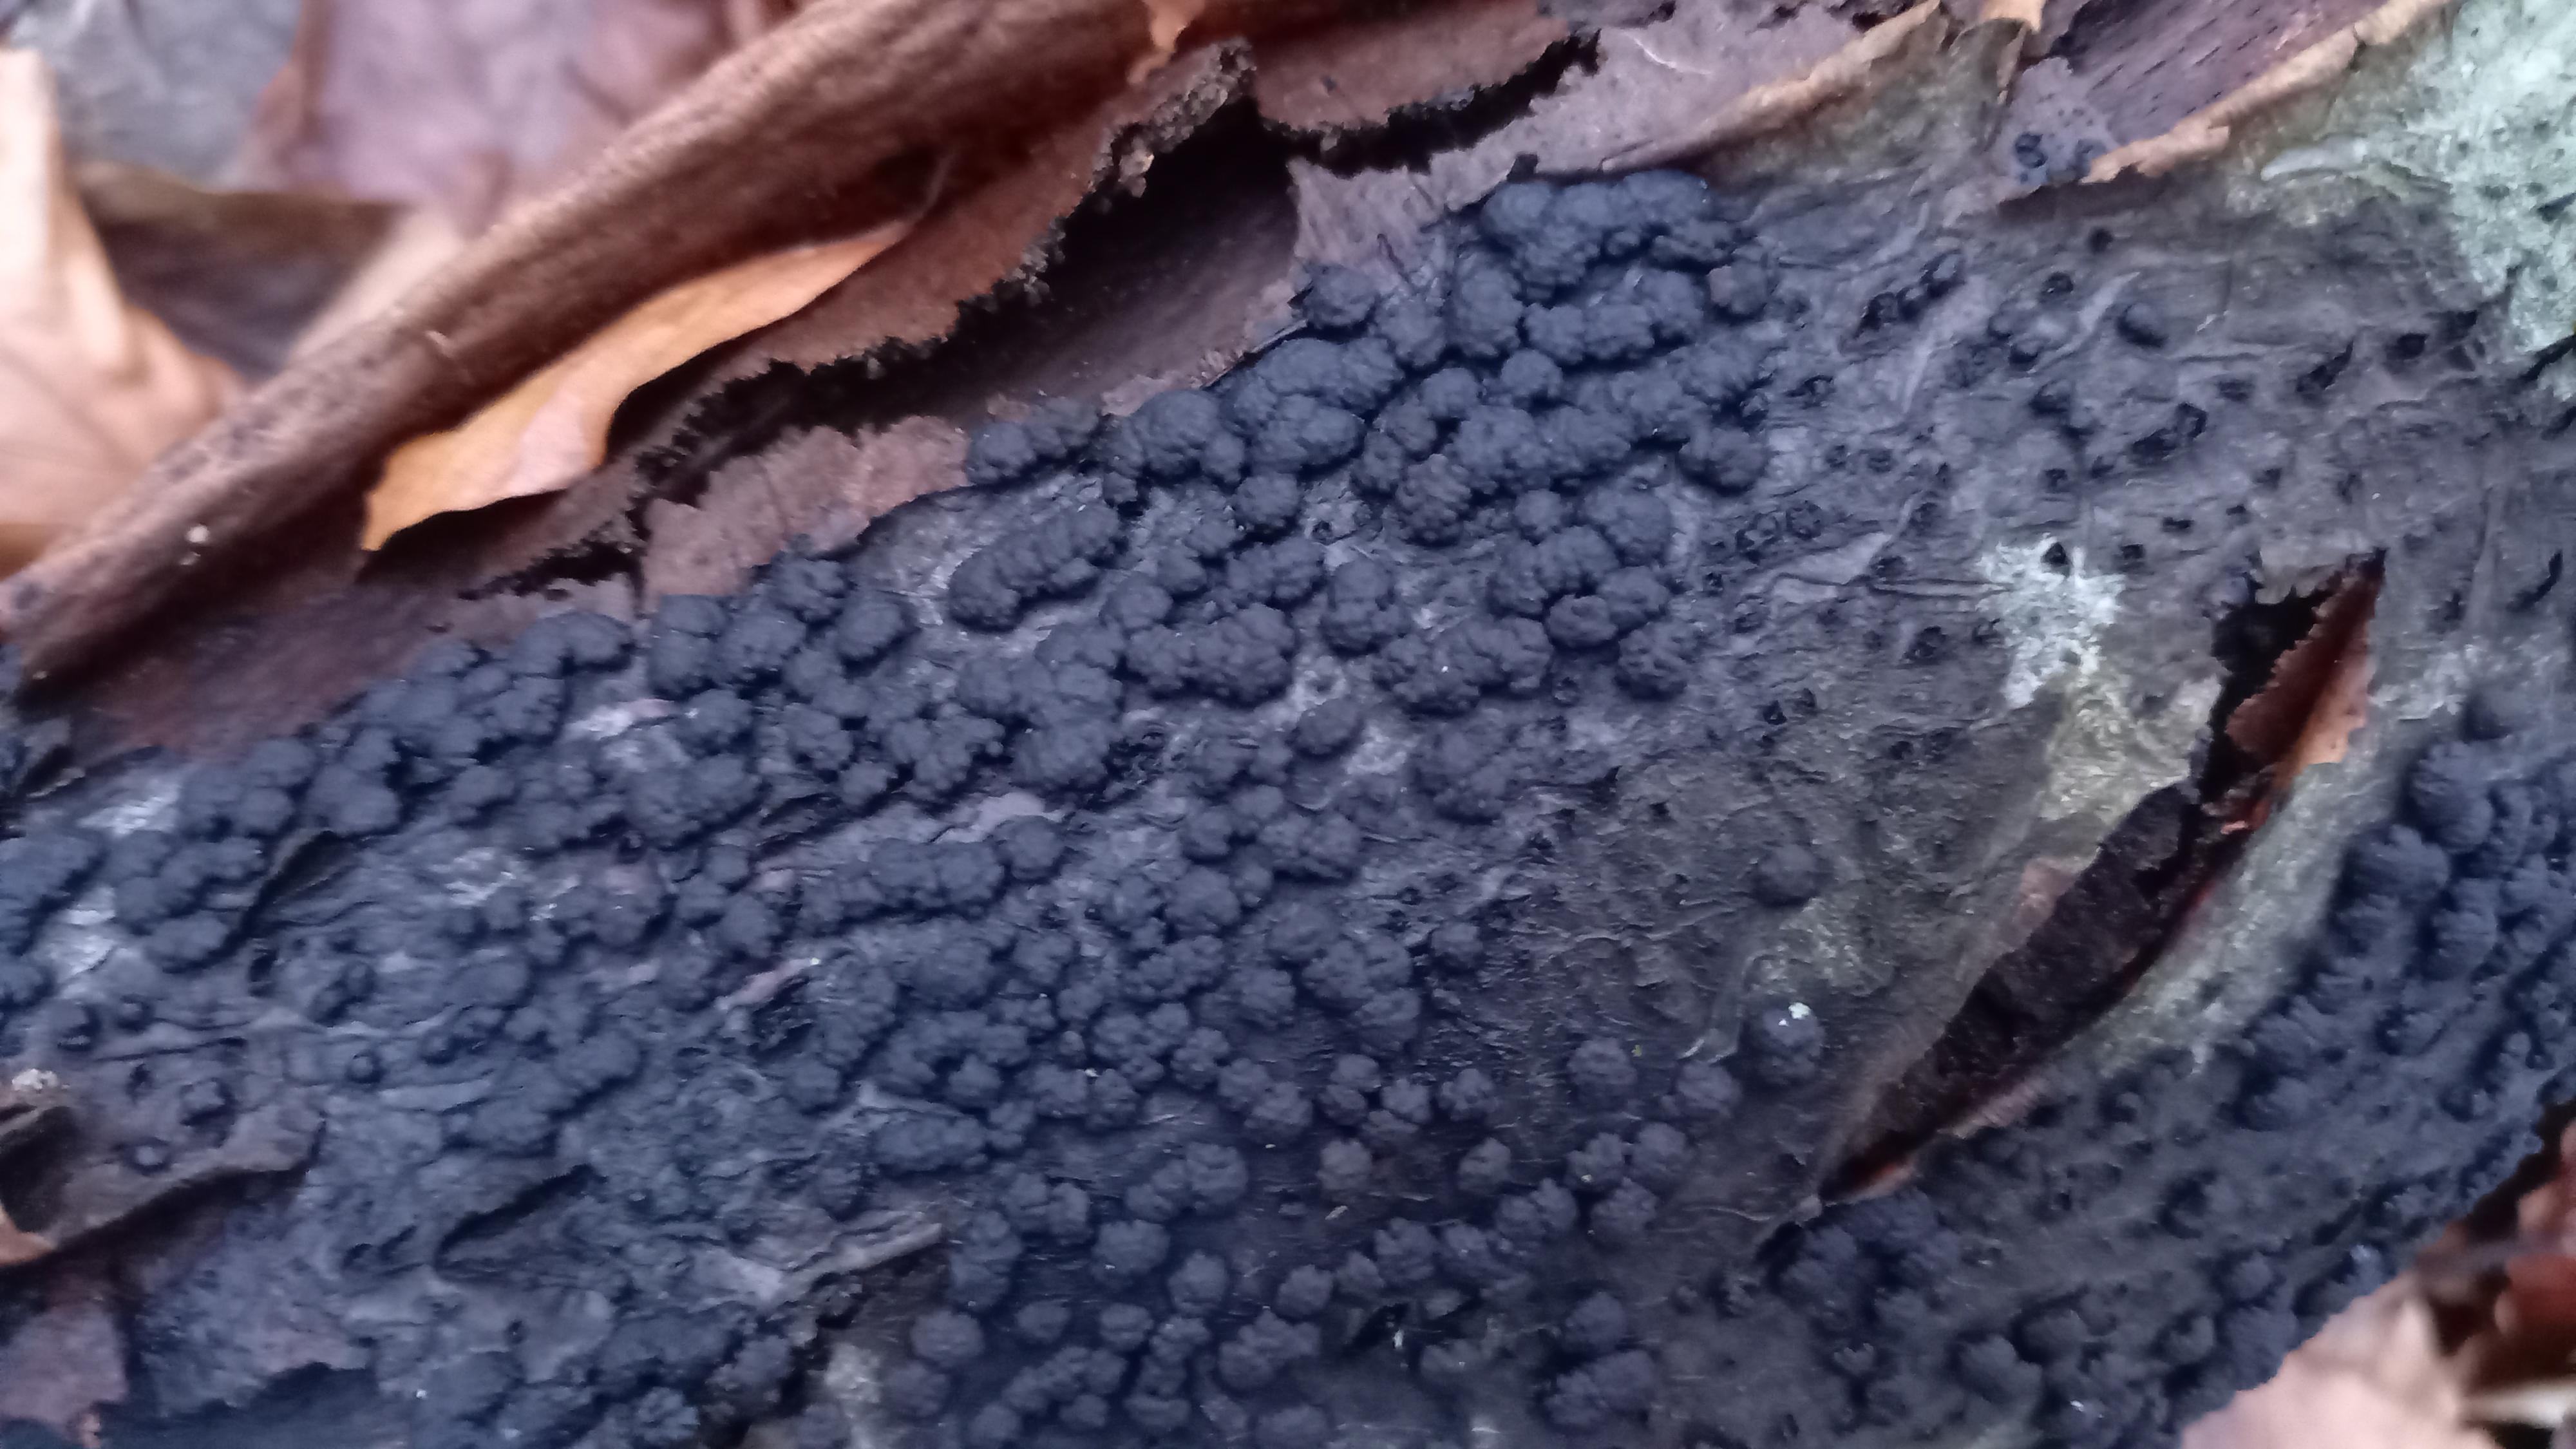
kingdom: Fungi
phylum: Ascomycota
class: Sordariomycetes
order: Xylariales
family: Hypoxylaceae
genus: Jackrogersella
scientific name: Jackrogersella cohaerens
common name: sammenflydende kulbær
